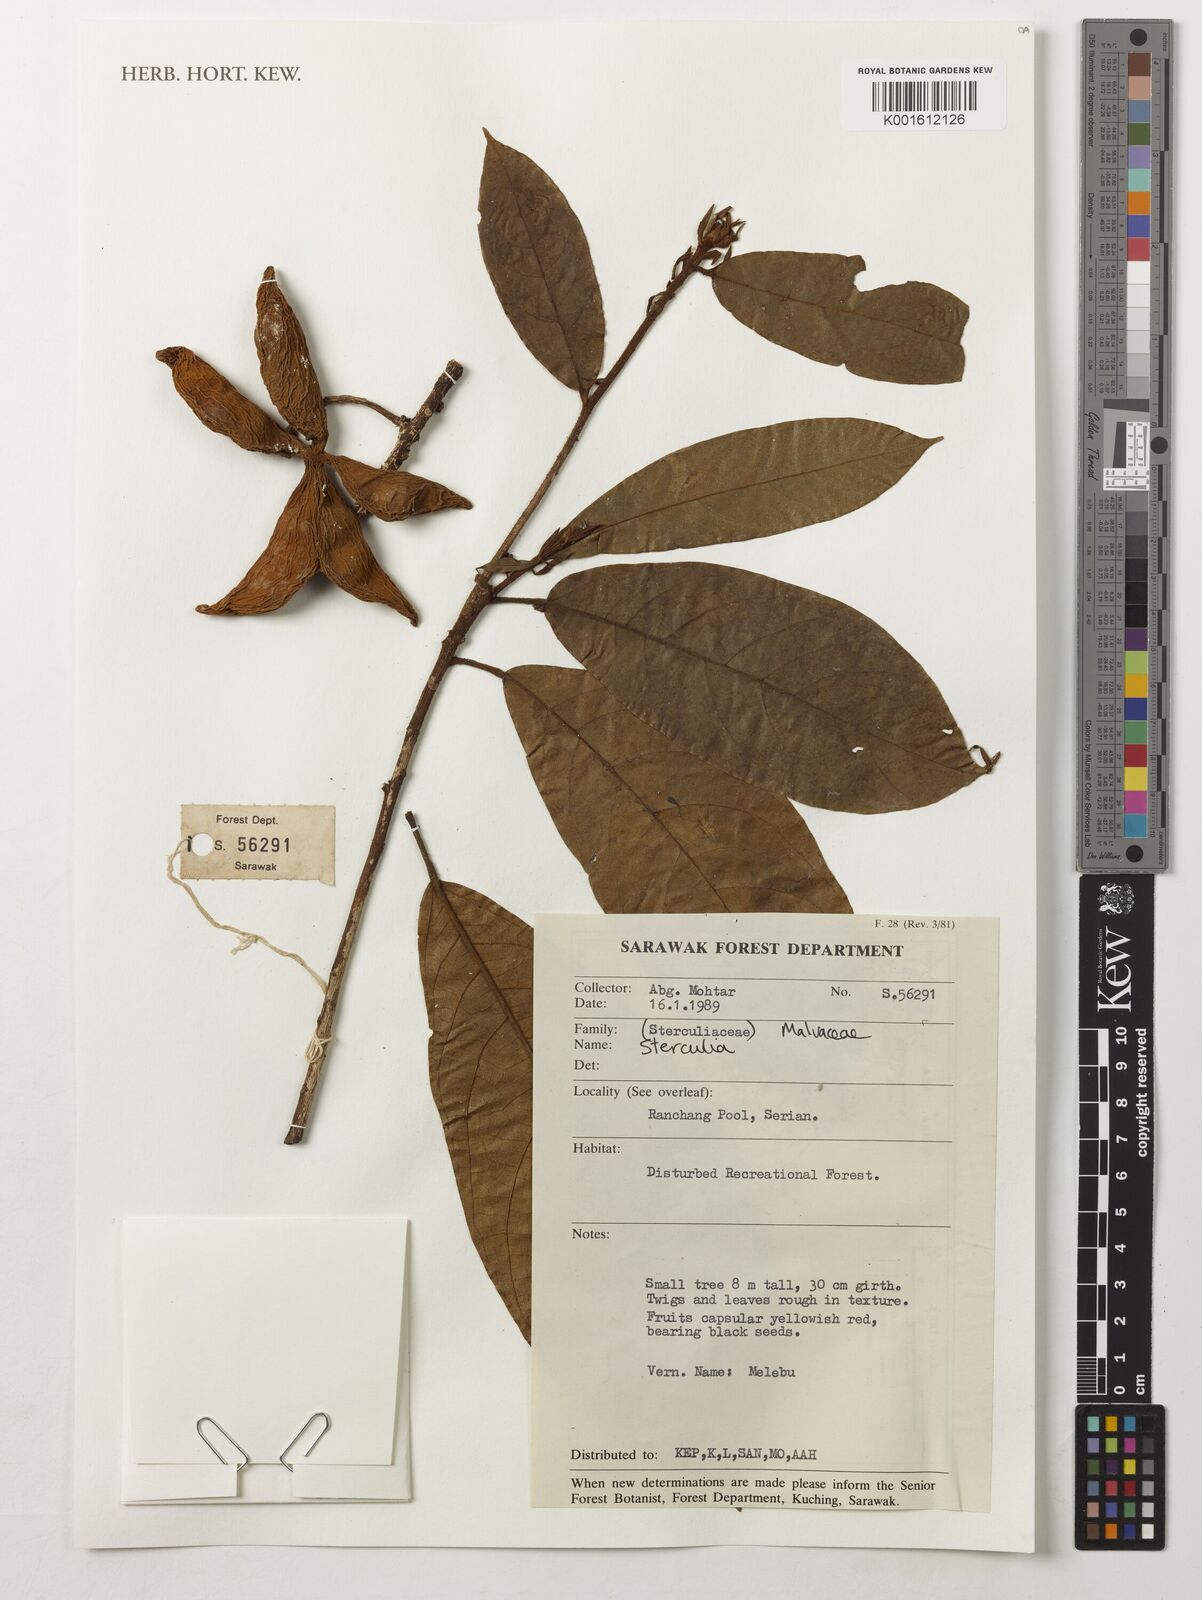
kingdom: Plantae
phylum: Tracheophyta
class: Magnoliopsida
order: Malvales
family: Malvaceae
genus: Sterculia
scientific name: Sterculia
